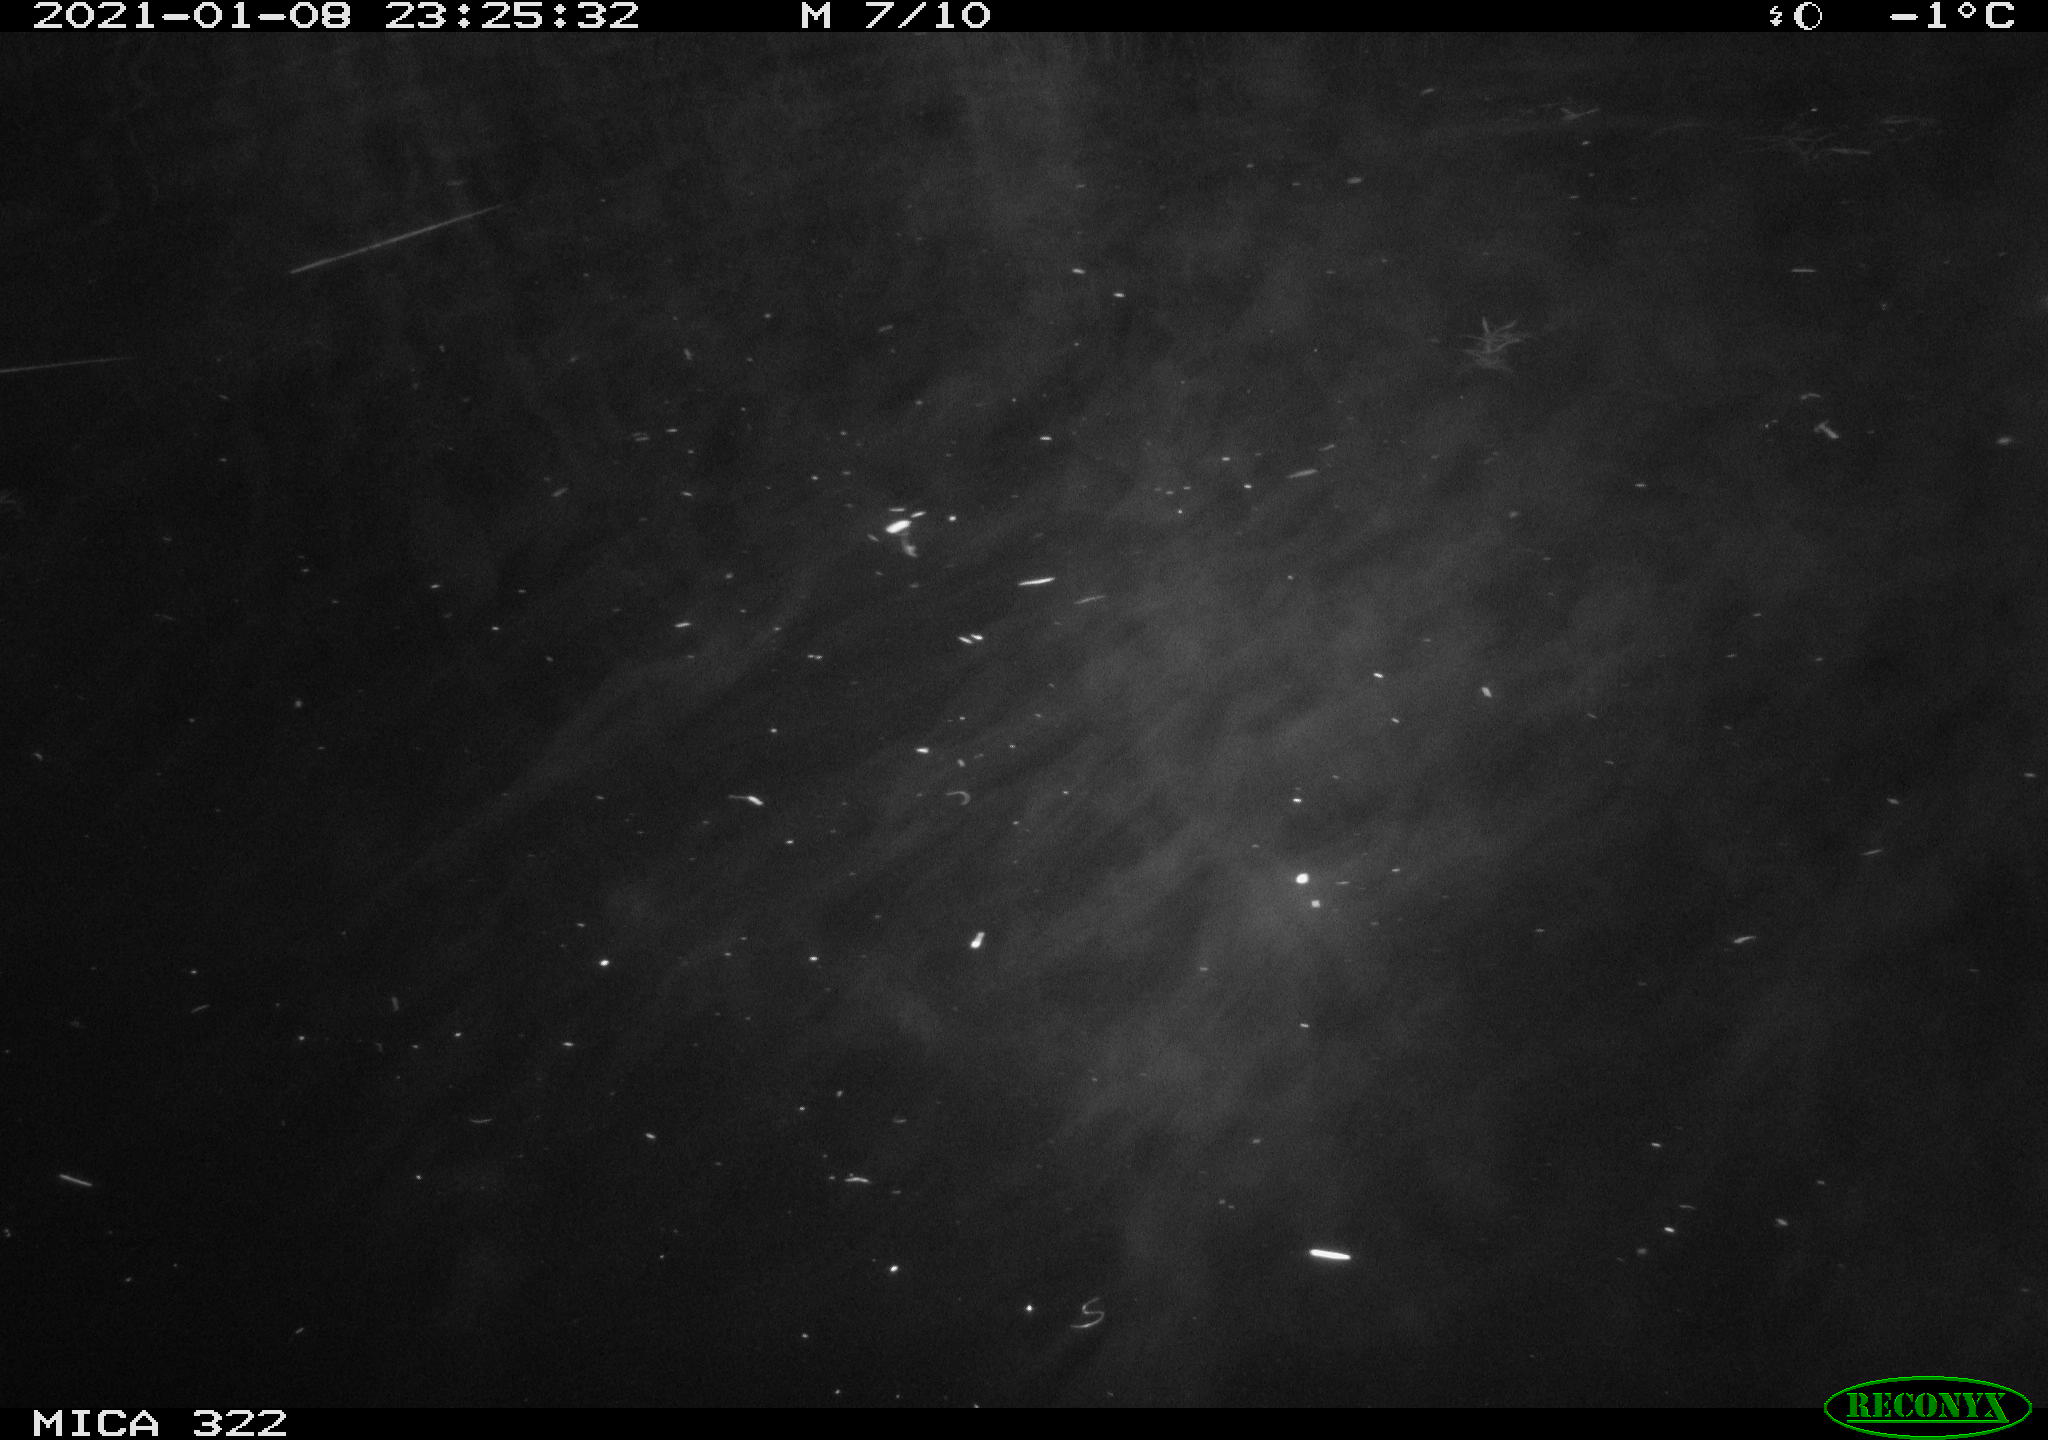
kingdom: Animalia
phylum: Chordata
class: Aves
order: Anseriformes
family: Anatidae
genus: Mareca
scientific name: Mareca strepera
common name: Gadwall
